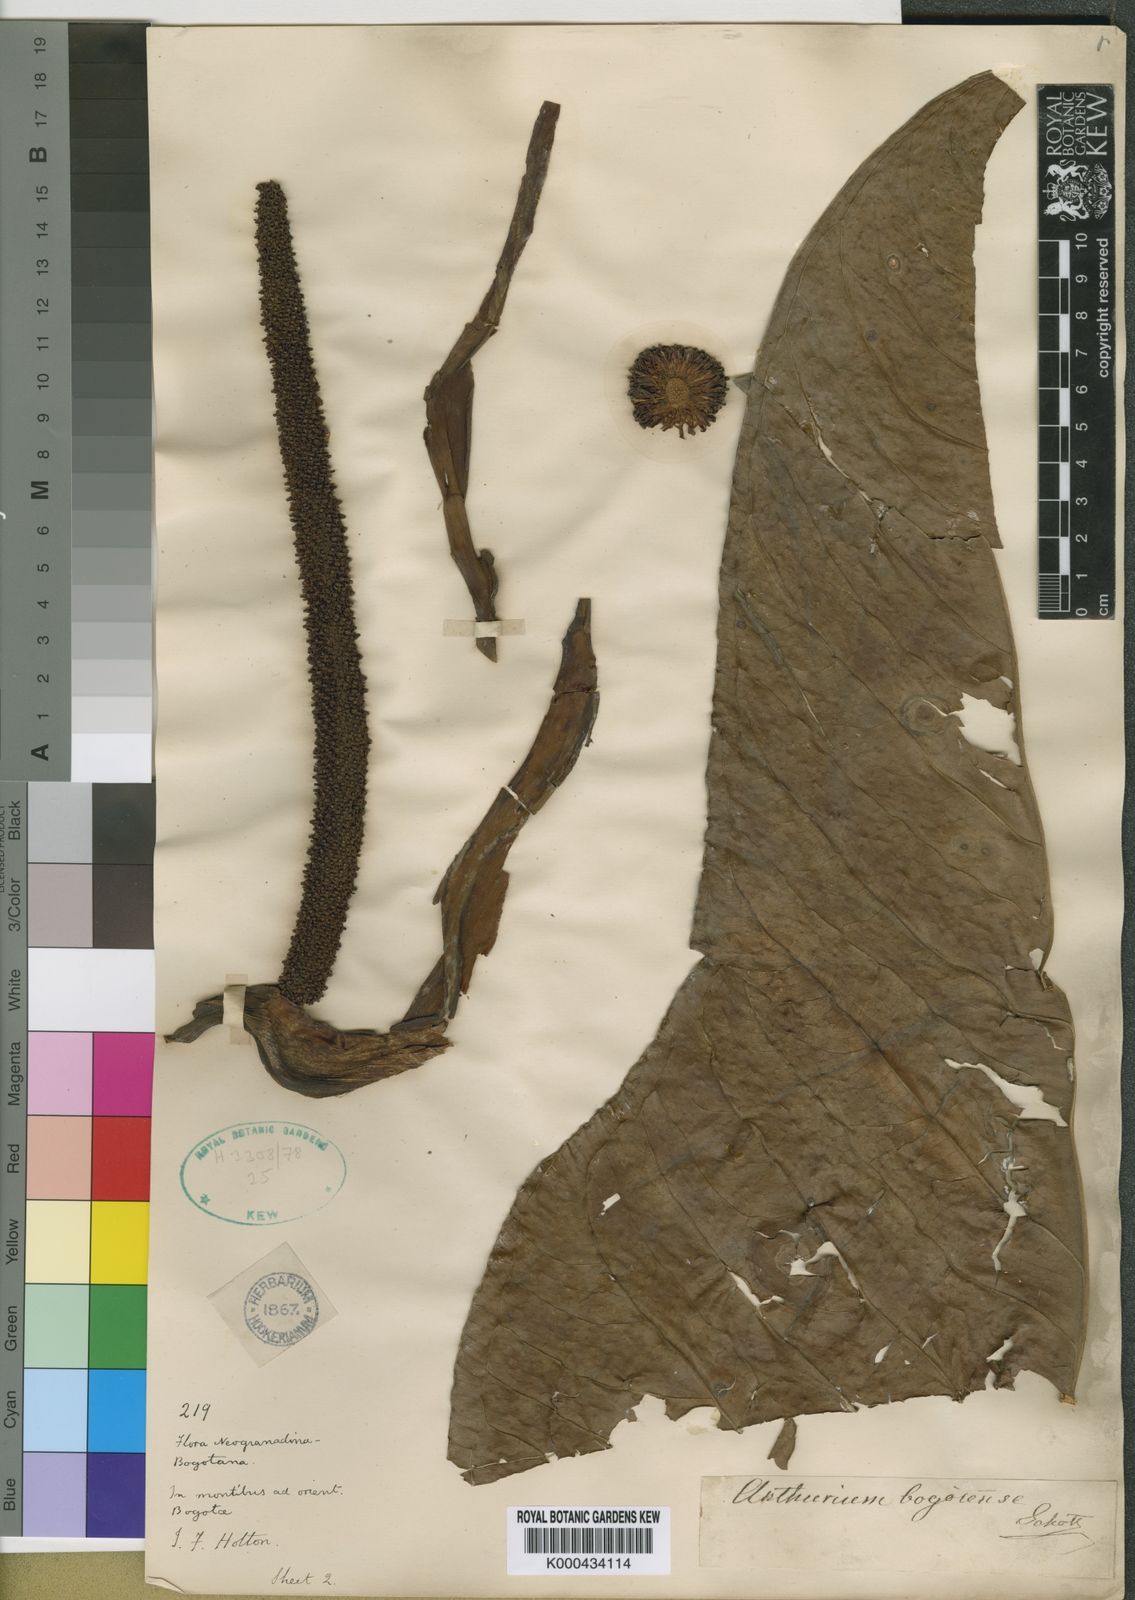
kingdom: Plantae
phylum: Tracheophyta
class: Liliopsida
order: Alismatales
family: Araceae
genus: Anthurium
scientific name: Anthurium bogotense
